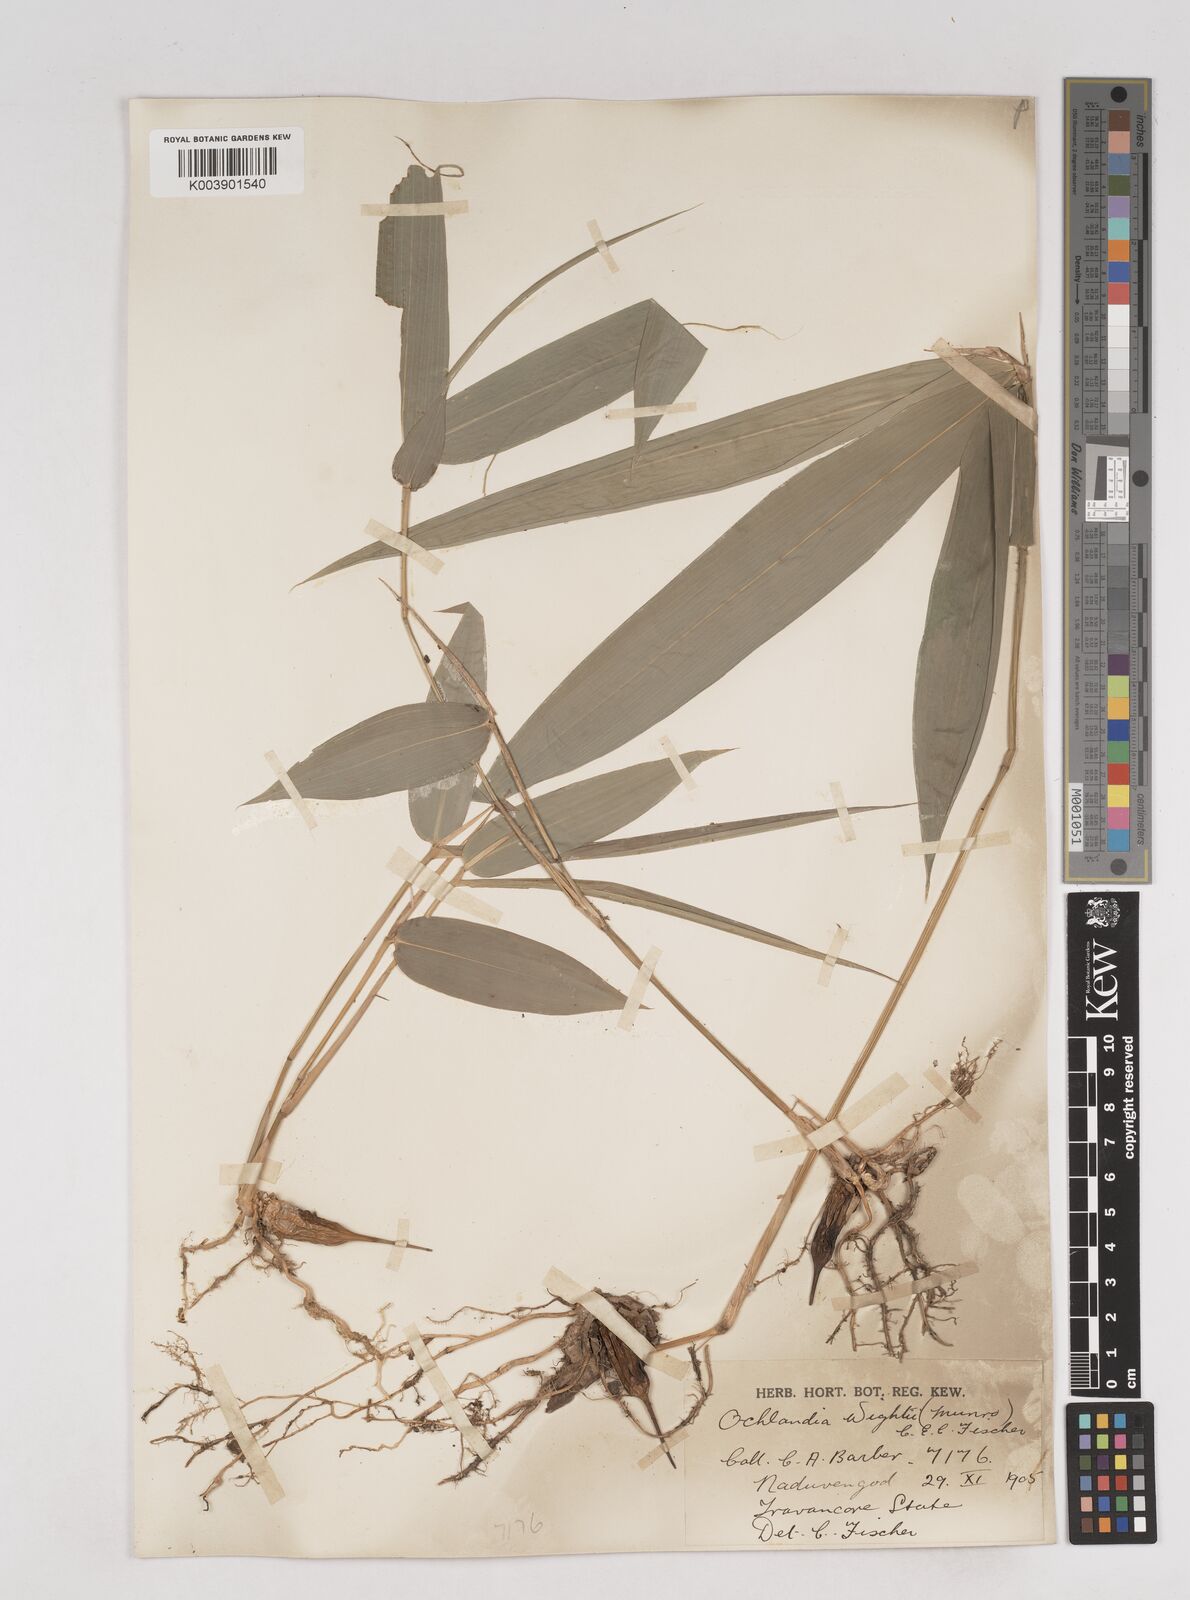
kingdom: Plantae
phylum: Tracheophyta
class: Liliopsida
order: Poales
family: Poaceae
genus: Ochlandra
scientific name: Ochlandra wightii
